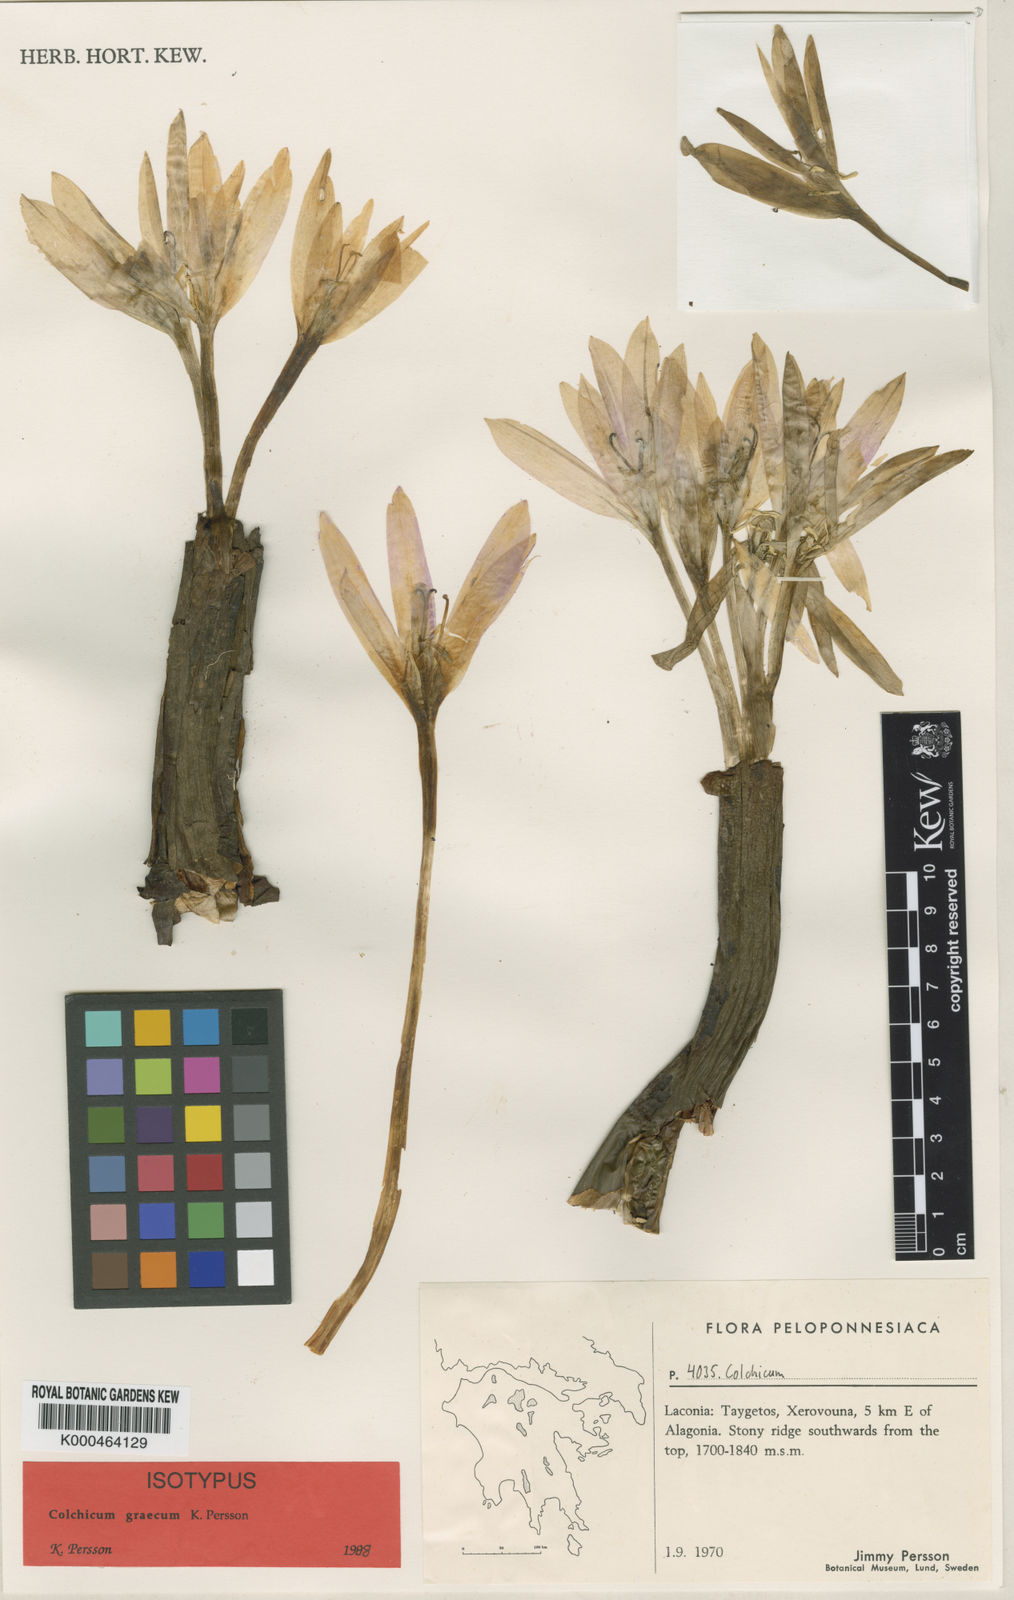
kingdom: Plantae
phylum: Tracheophyta
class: Liliopsida
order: Liliales
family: Colchicaceae
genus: Colchicum
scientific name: Colchicum graecum
